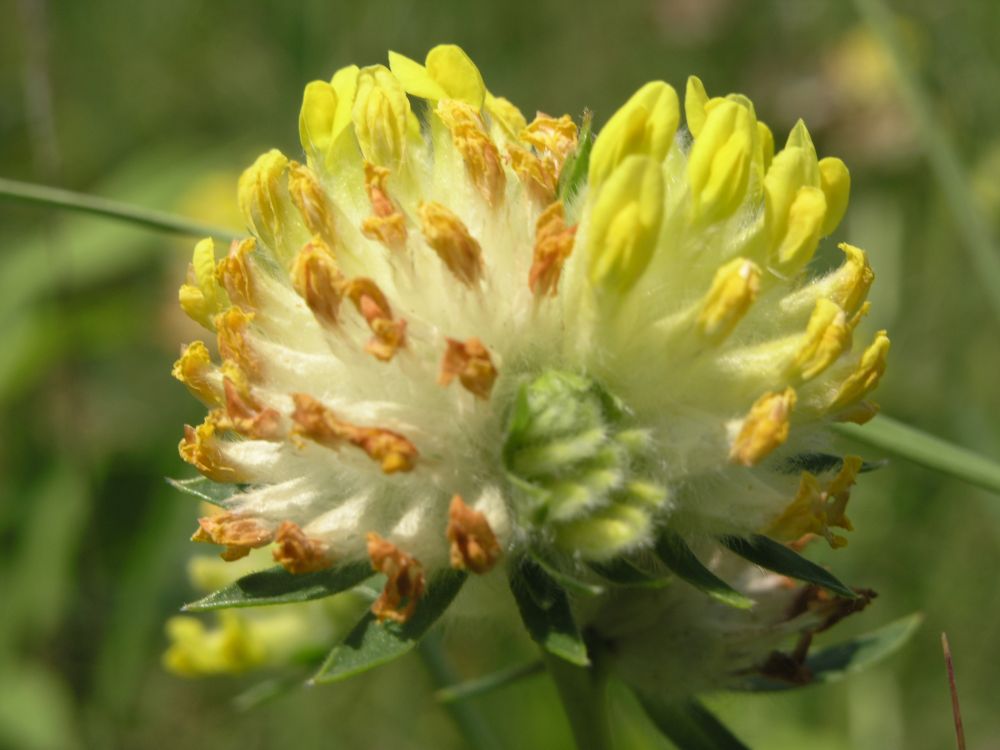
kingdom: Plantae
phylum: Tracheophyta
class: Magnoliopsida
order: Fabales
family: Fabaceae
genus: Anthyllis
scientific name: Anthyllis vulneraria
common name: Kidney vetch
